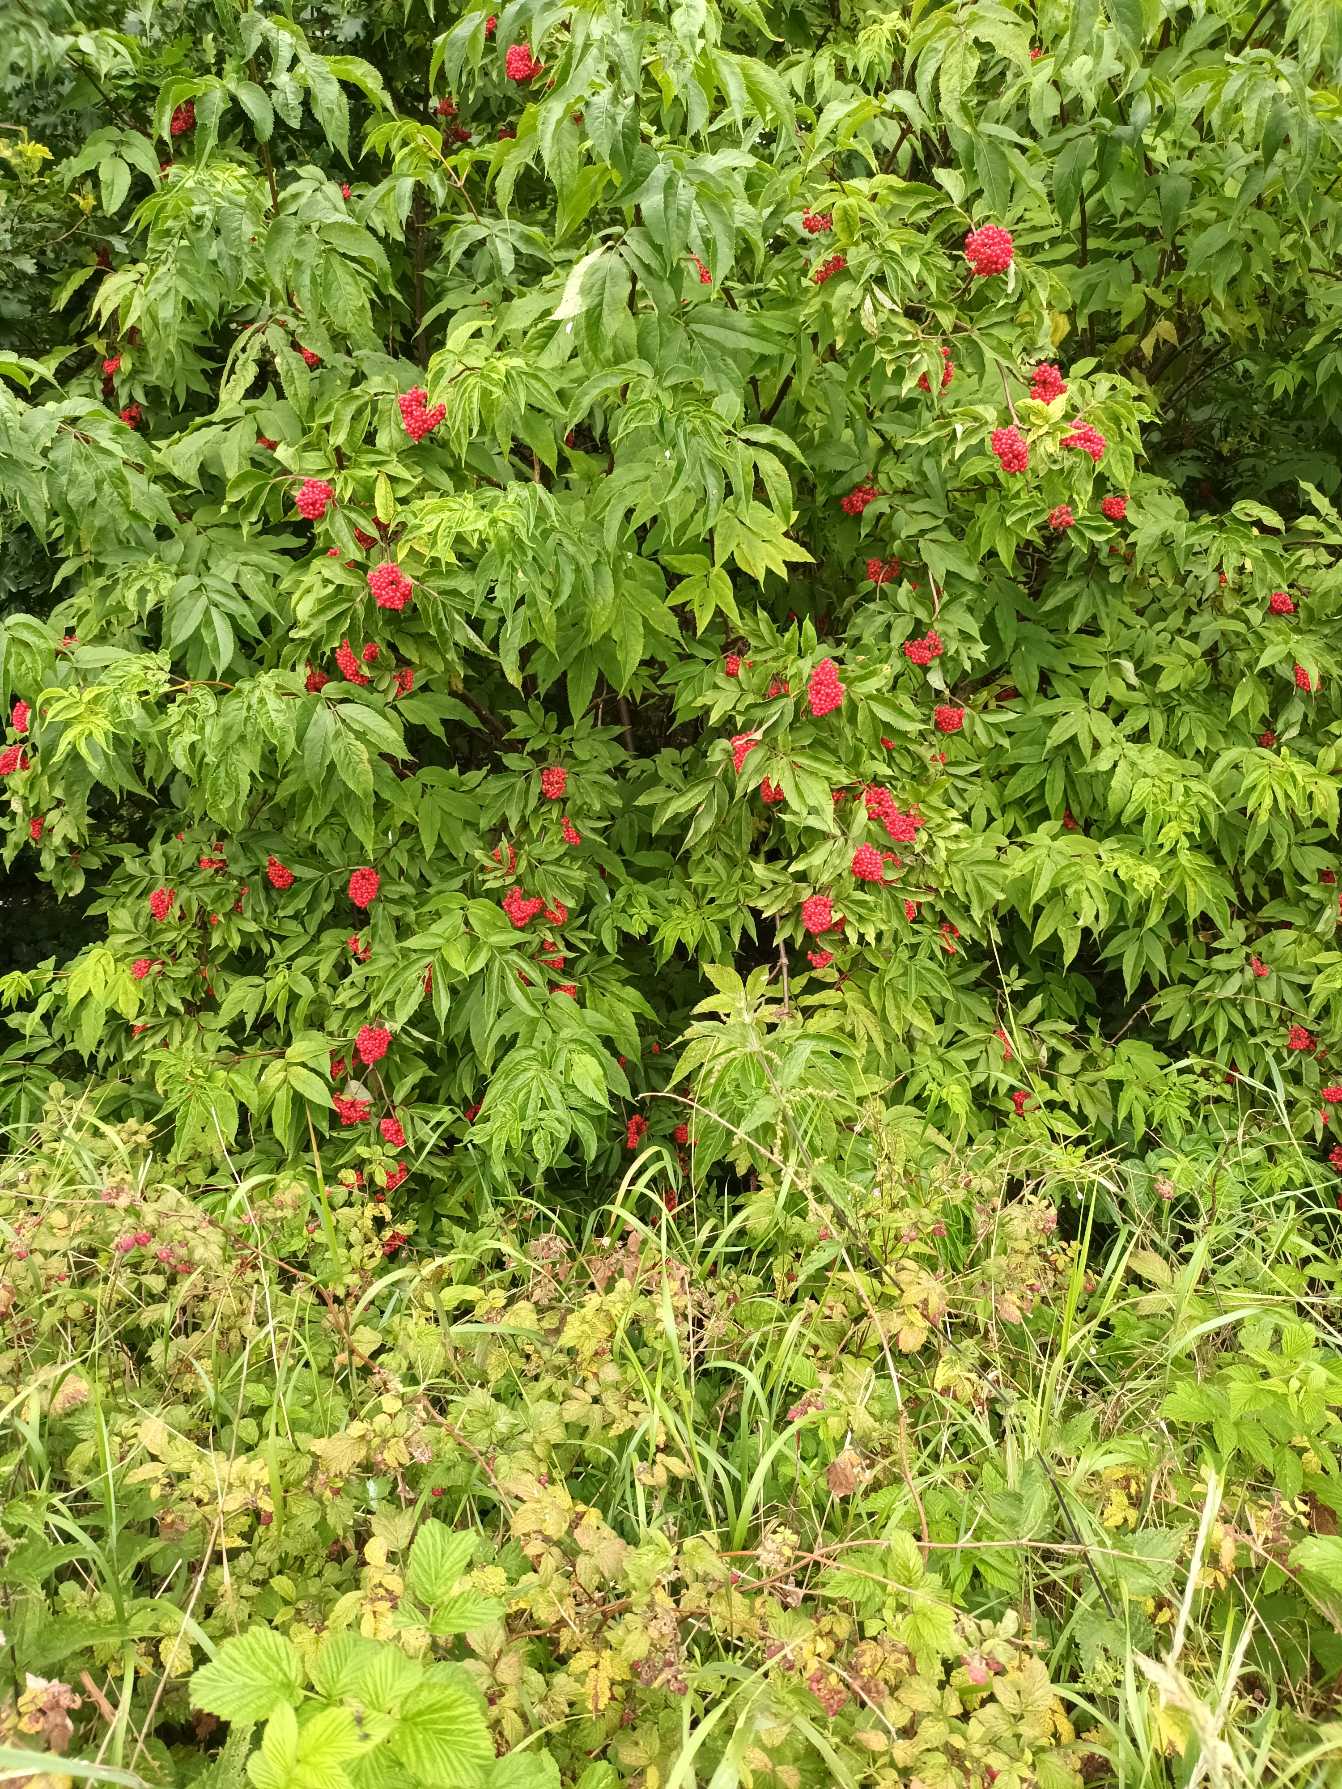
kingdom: Plantae
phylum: Tracheophyta
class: Magnoliopsida
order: Dipsacales
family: Viburnaceae
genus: Sambucus
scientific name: Sambucus racemosa
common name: Drue-hyld
